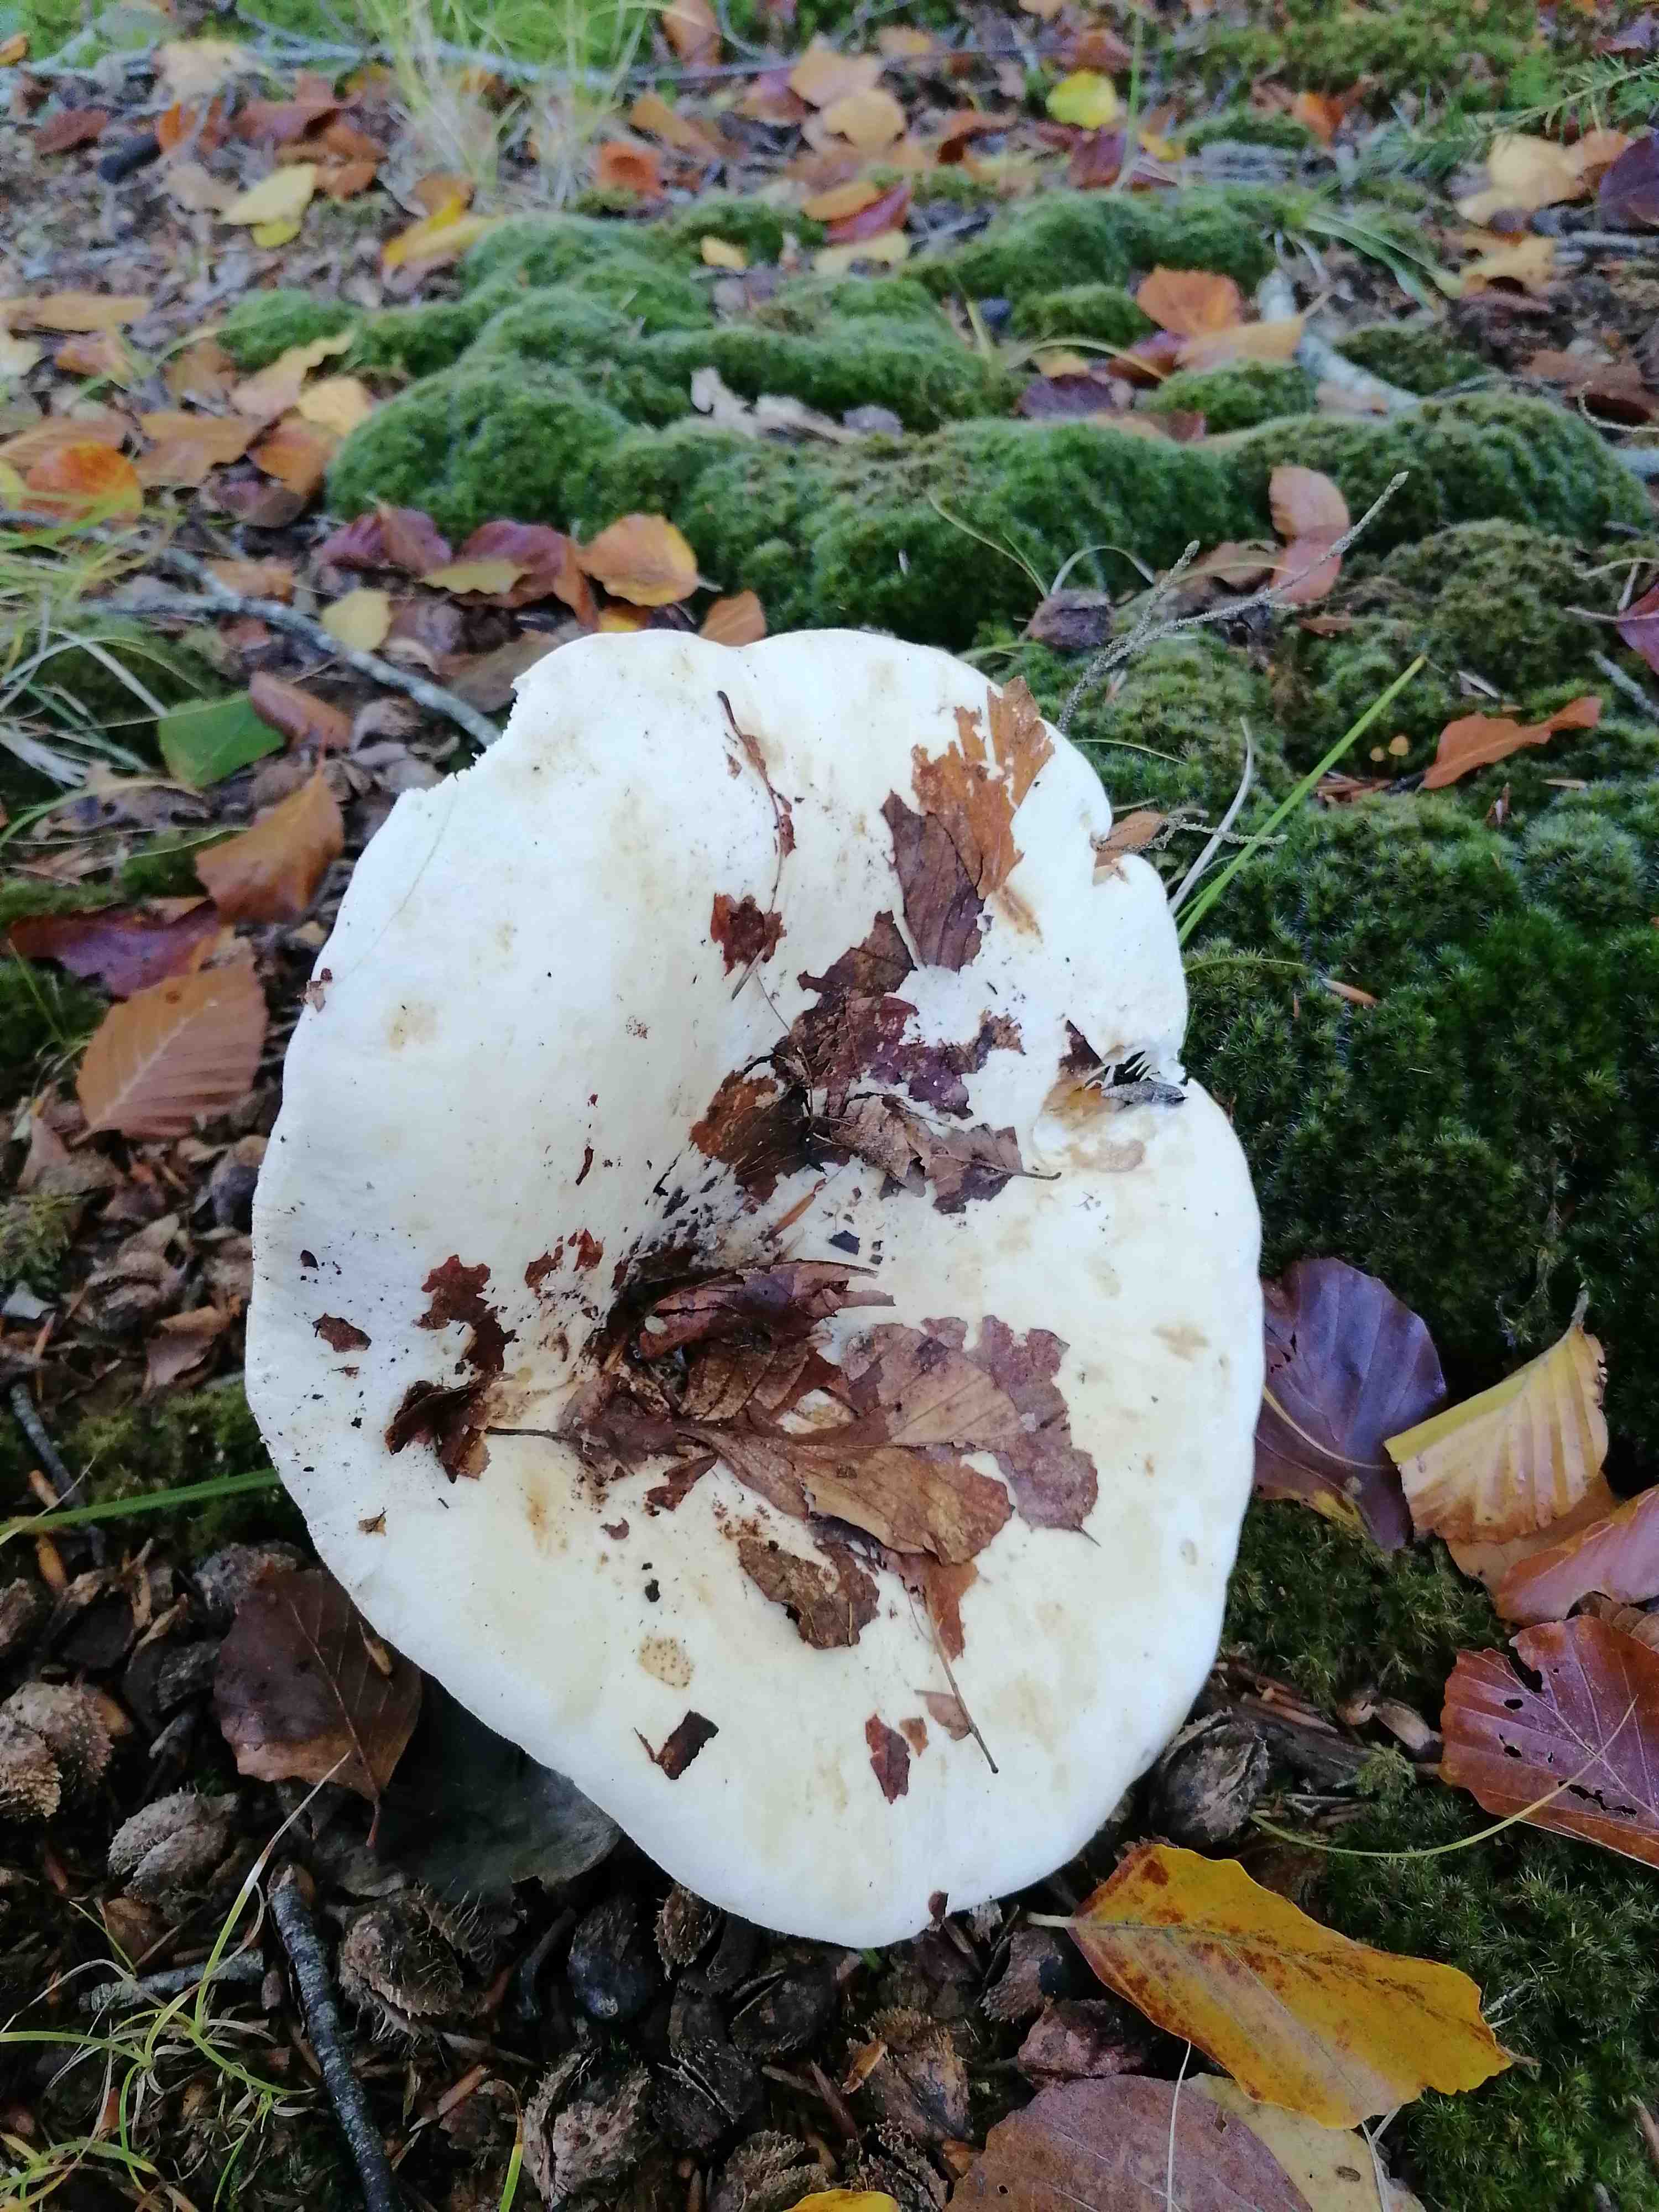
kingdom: Fungi
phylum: Basidiomycota
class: Agaricomycetes
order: Russulales
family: Russulaceae
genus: Lactifluus
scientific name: Lactifluus vellereus
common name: hvidfiltet mælkehat
